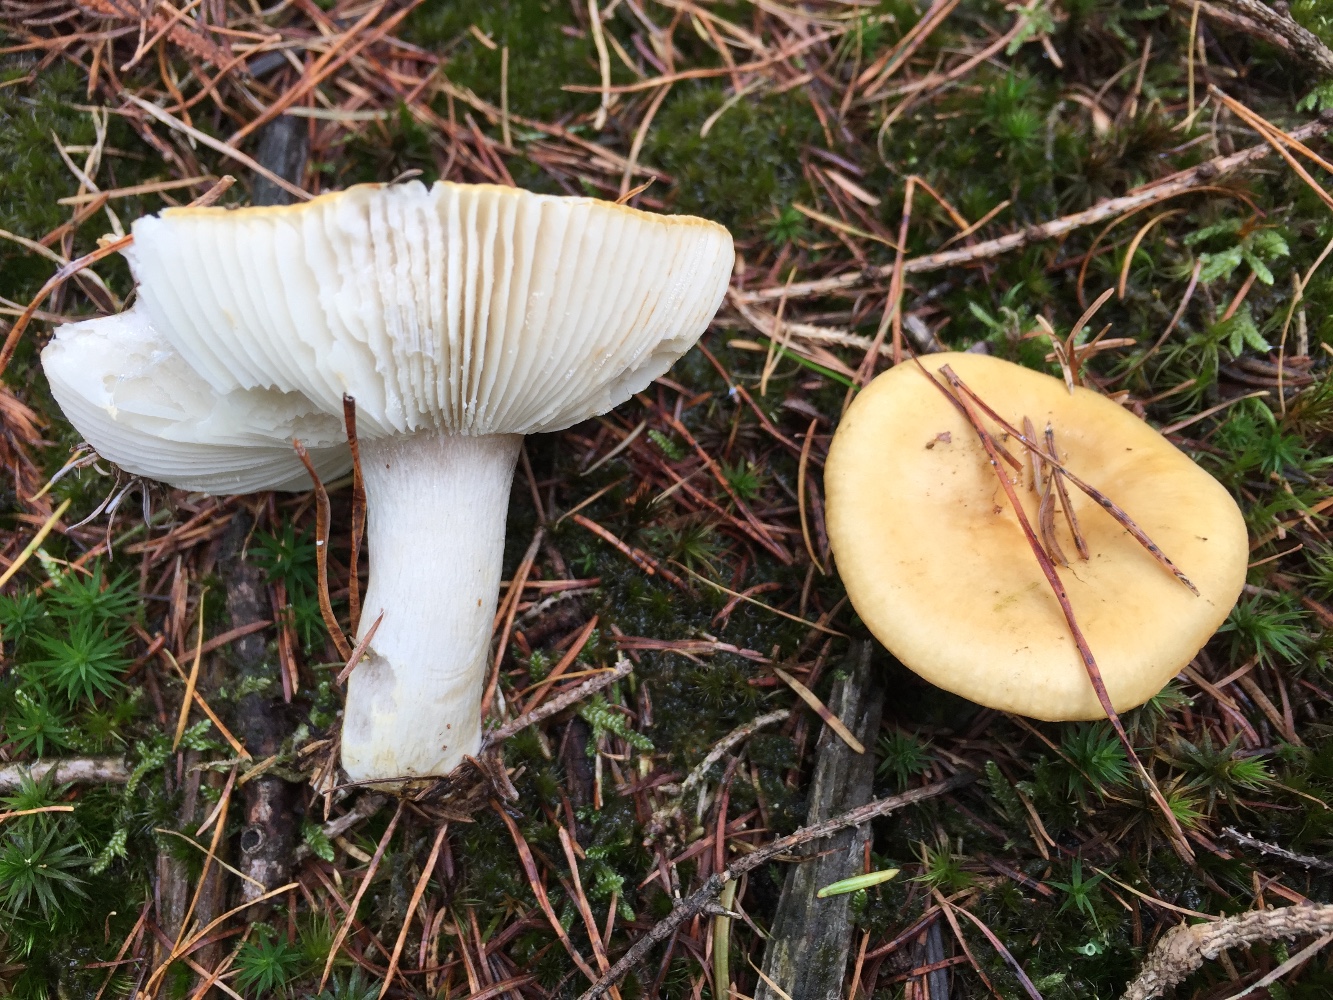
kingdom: Fungi
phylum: Basidiomycota
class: Agaricomycetes
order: Russulales
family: Russulaceae
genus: Russula
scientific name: Russula ochroleuca
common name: okkergul skørhat
